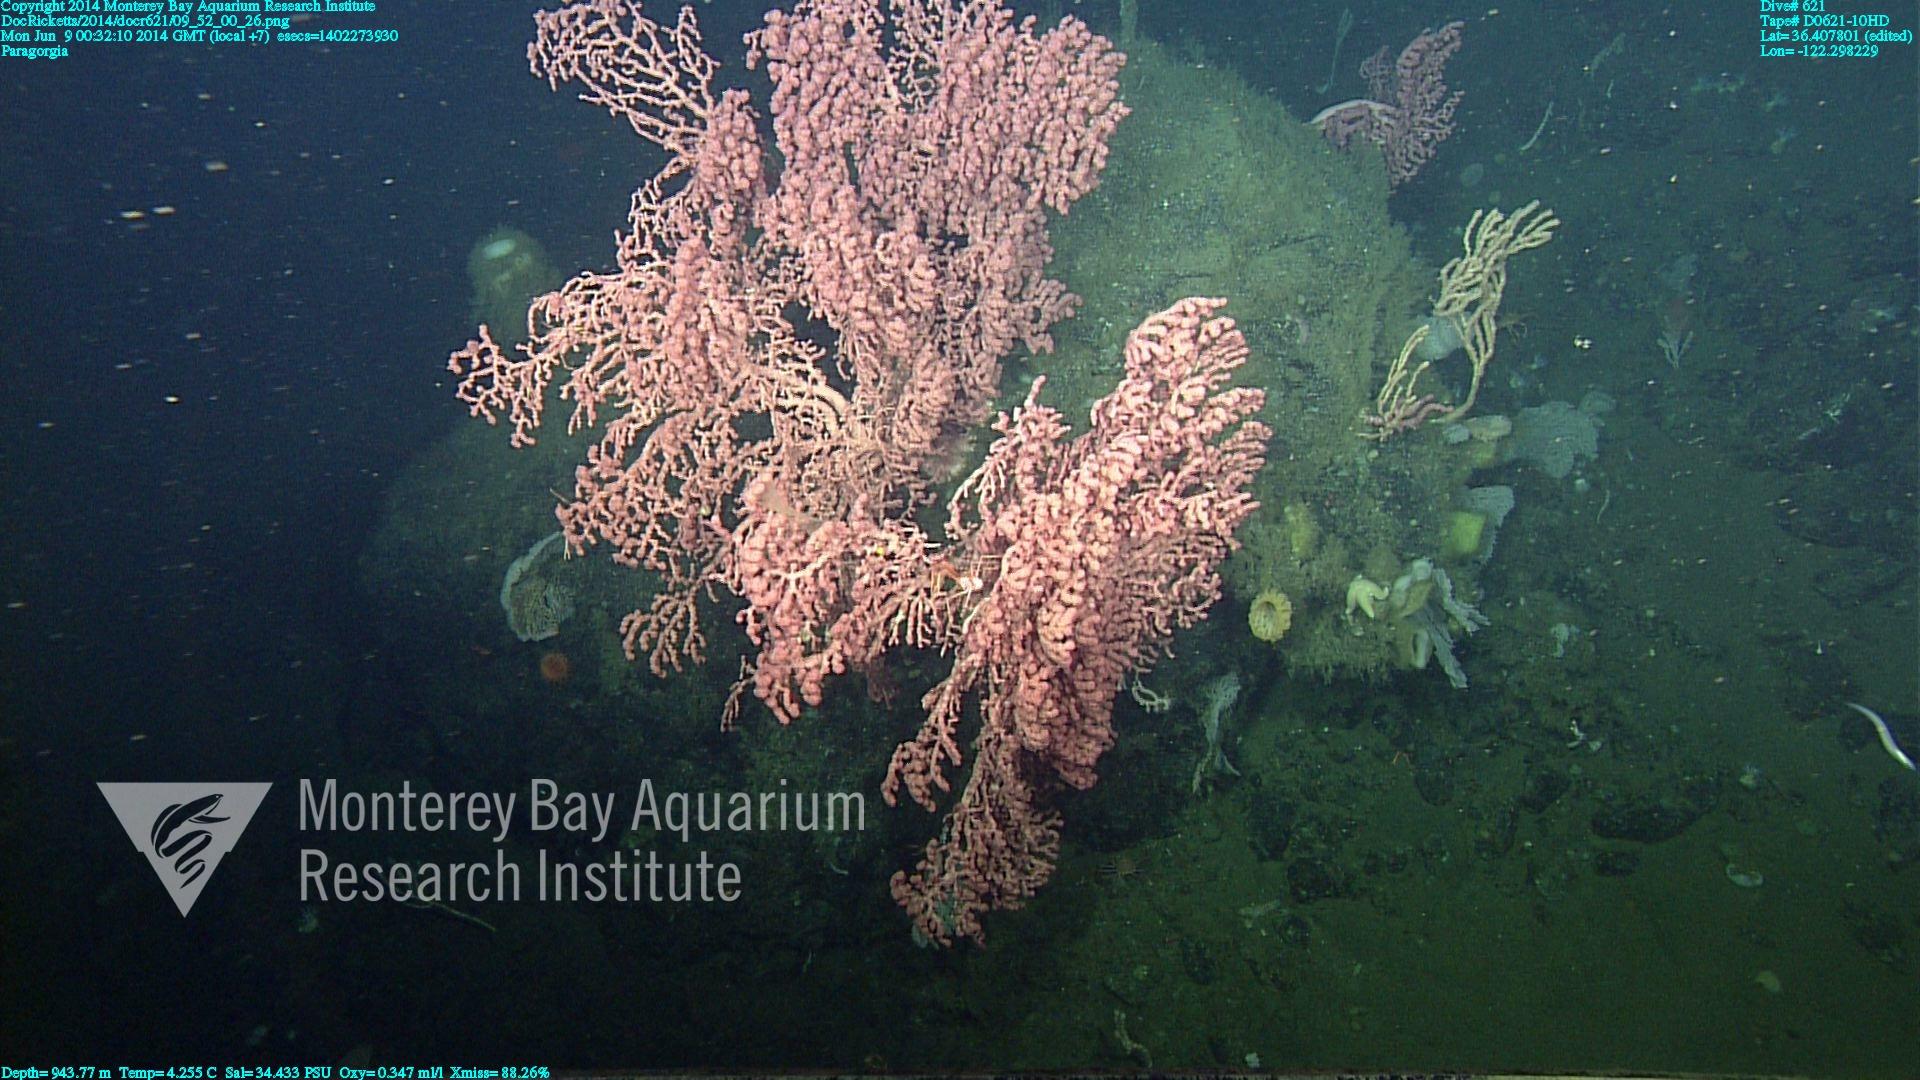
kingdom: Animalia
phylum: Cnidaria
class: Anthozoa
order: Scleralcyonacea
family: Coralliidae
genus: Paragorgia
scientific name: Paragorgia arborea
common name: Bubble gum coral
